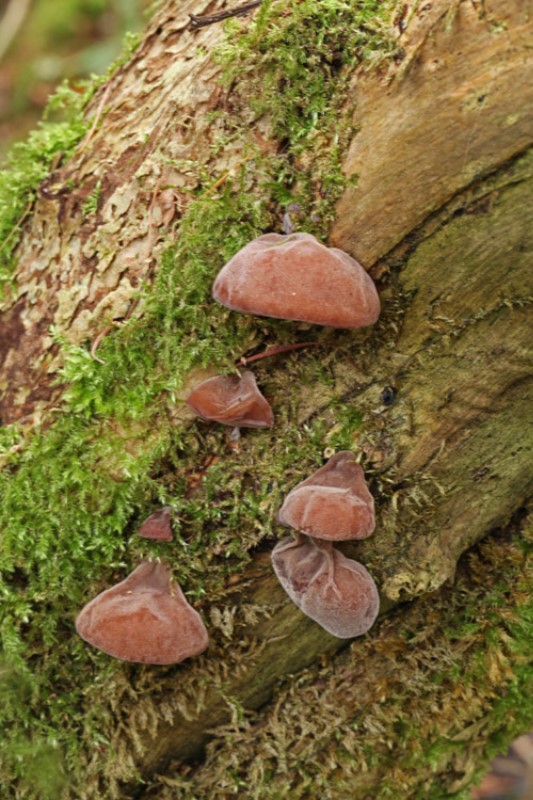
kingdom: Fungi
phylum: Basidiomycota
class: Agaricomycetes
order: Auriculariales
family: Auriculariaceae
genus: Auricularia
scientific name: Auricularia auricula-judae
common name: almindelig judasøre
